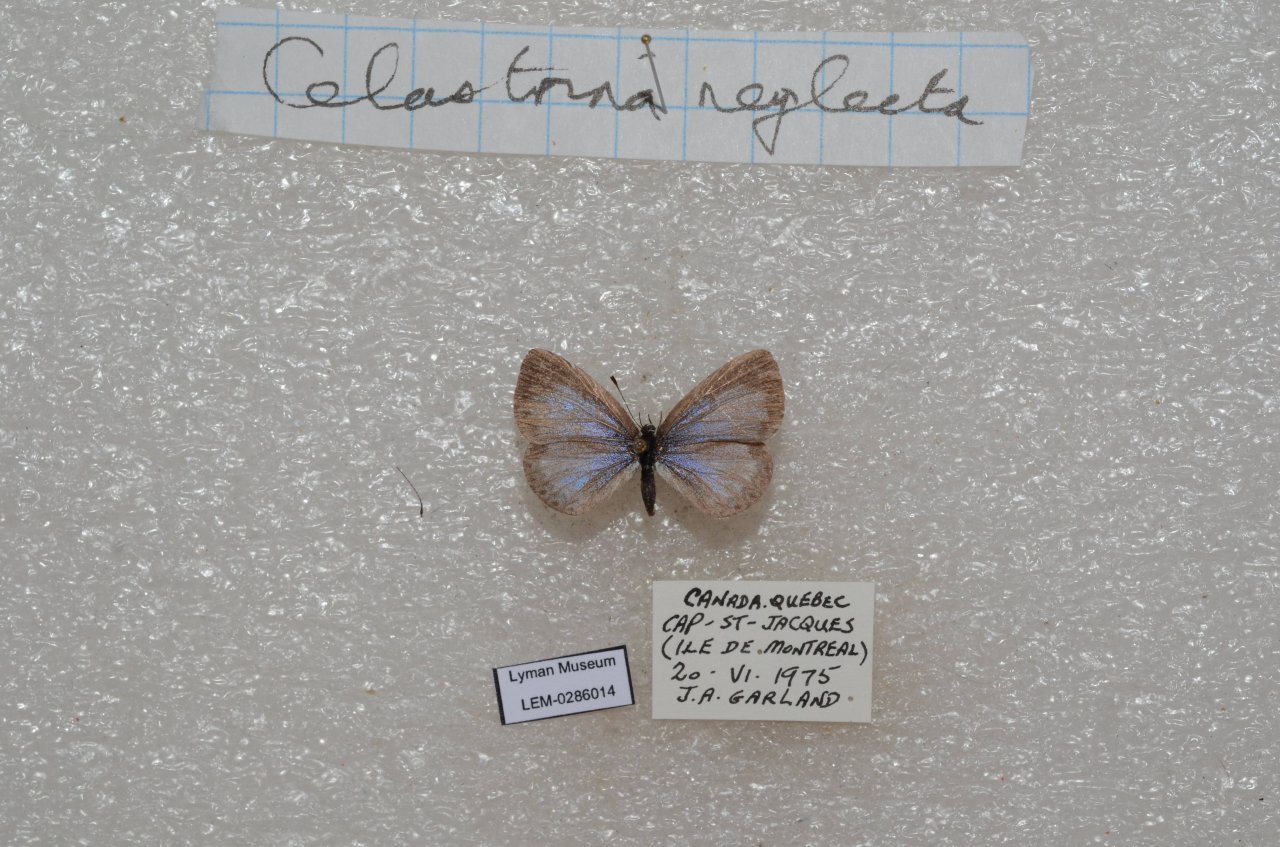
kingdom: Animalia
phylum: Arthropoda
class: Insecta
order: Lepidoptera
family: Lycaenidae
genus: Cyaniris
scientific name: Cyaniris neglecta
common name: Summer Azure
